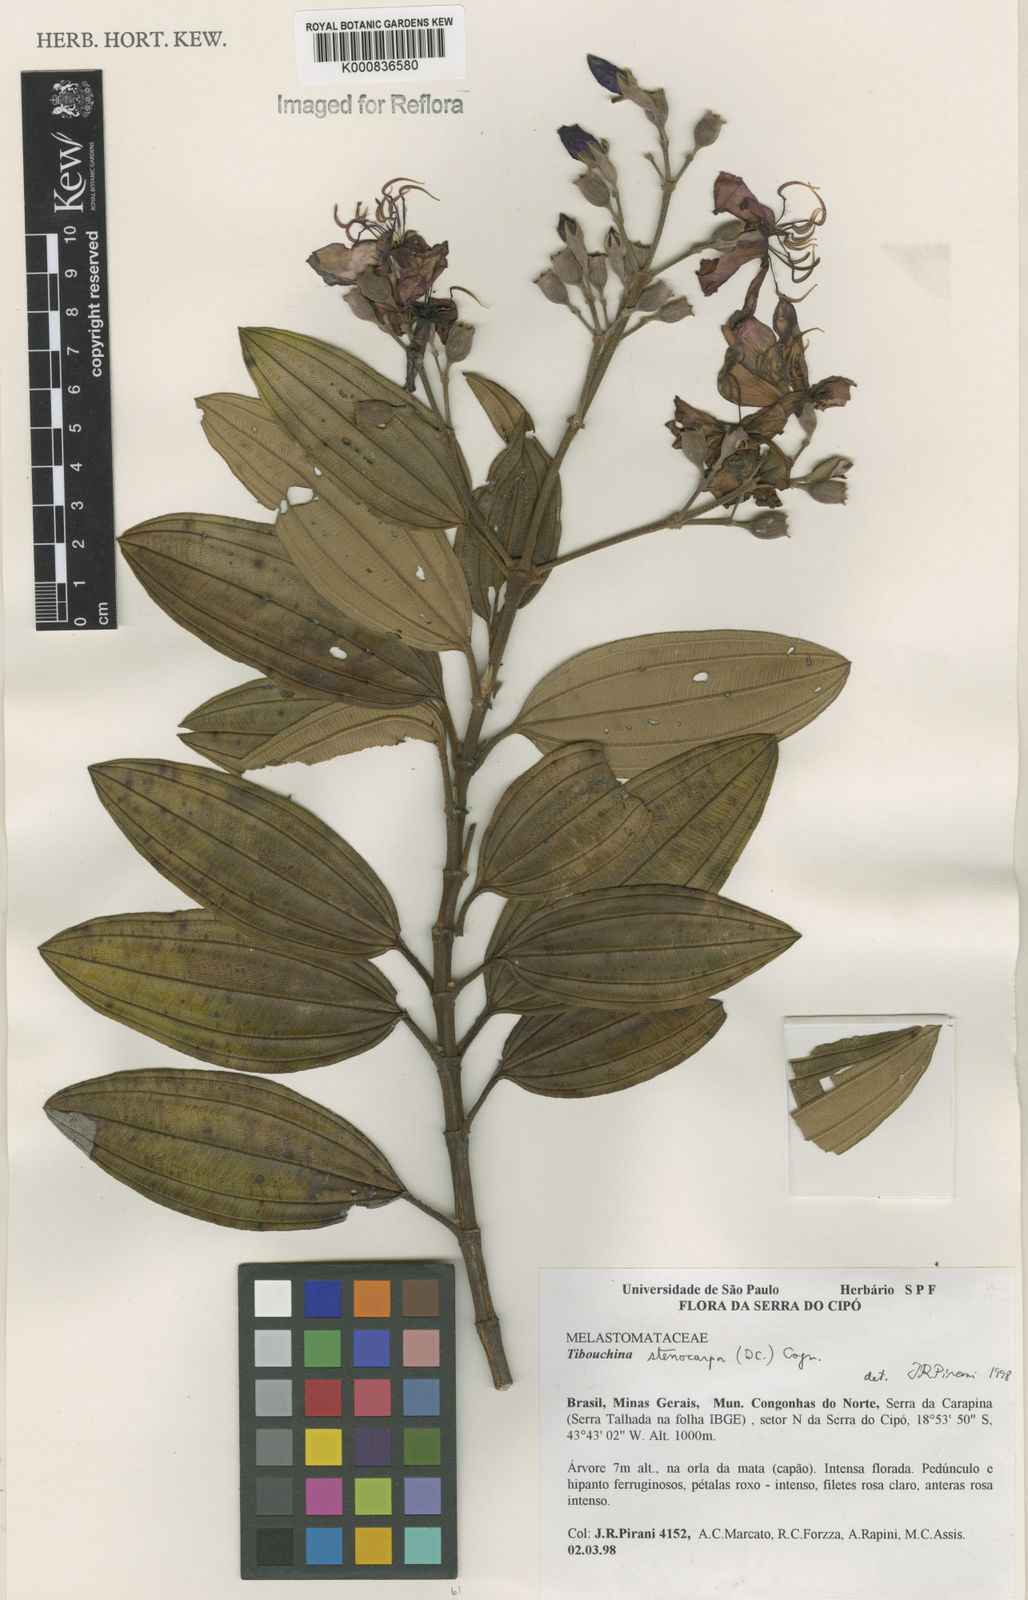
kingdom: Plantae
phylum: Tracheophyta
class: Magnoliopsida
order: Myrtales
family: Melastomataceae
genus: Pleroma
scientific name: Pleroma stenocarpum
